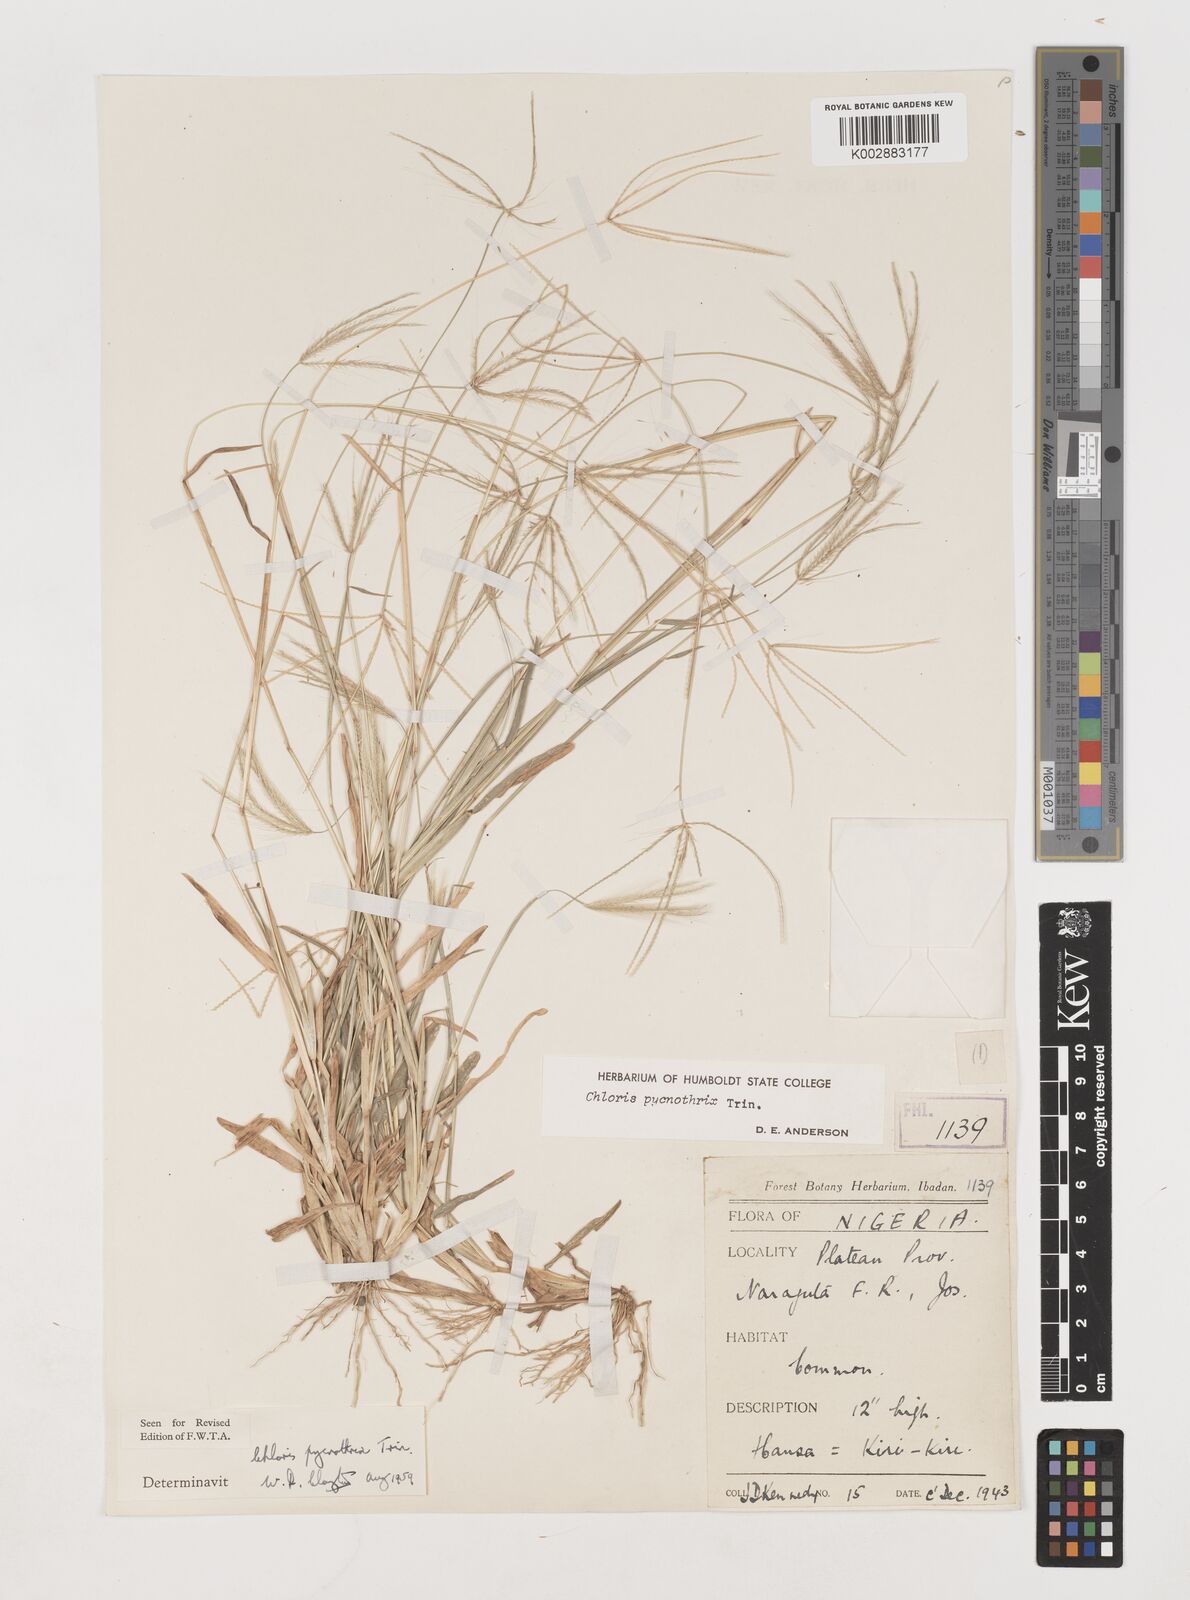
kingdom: Plantae
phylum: Tracheophyta
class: Liliopsida
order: Poales
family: Poaceae
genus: Chloris
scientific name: Chloris pycnothrix
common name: Spiderweb chloris
